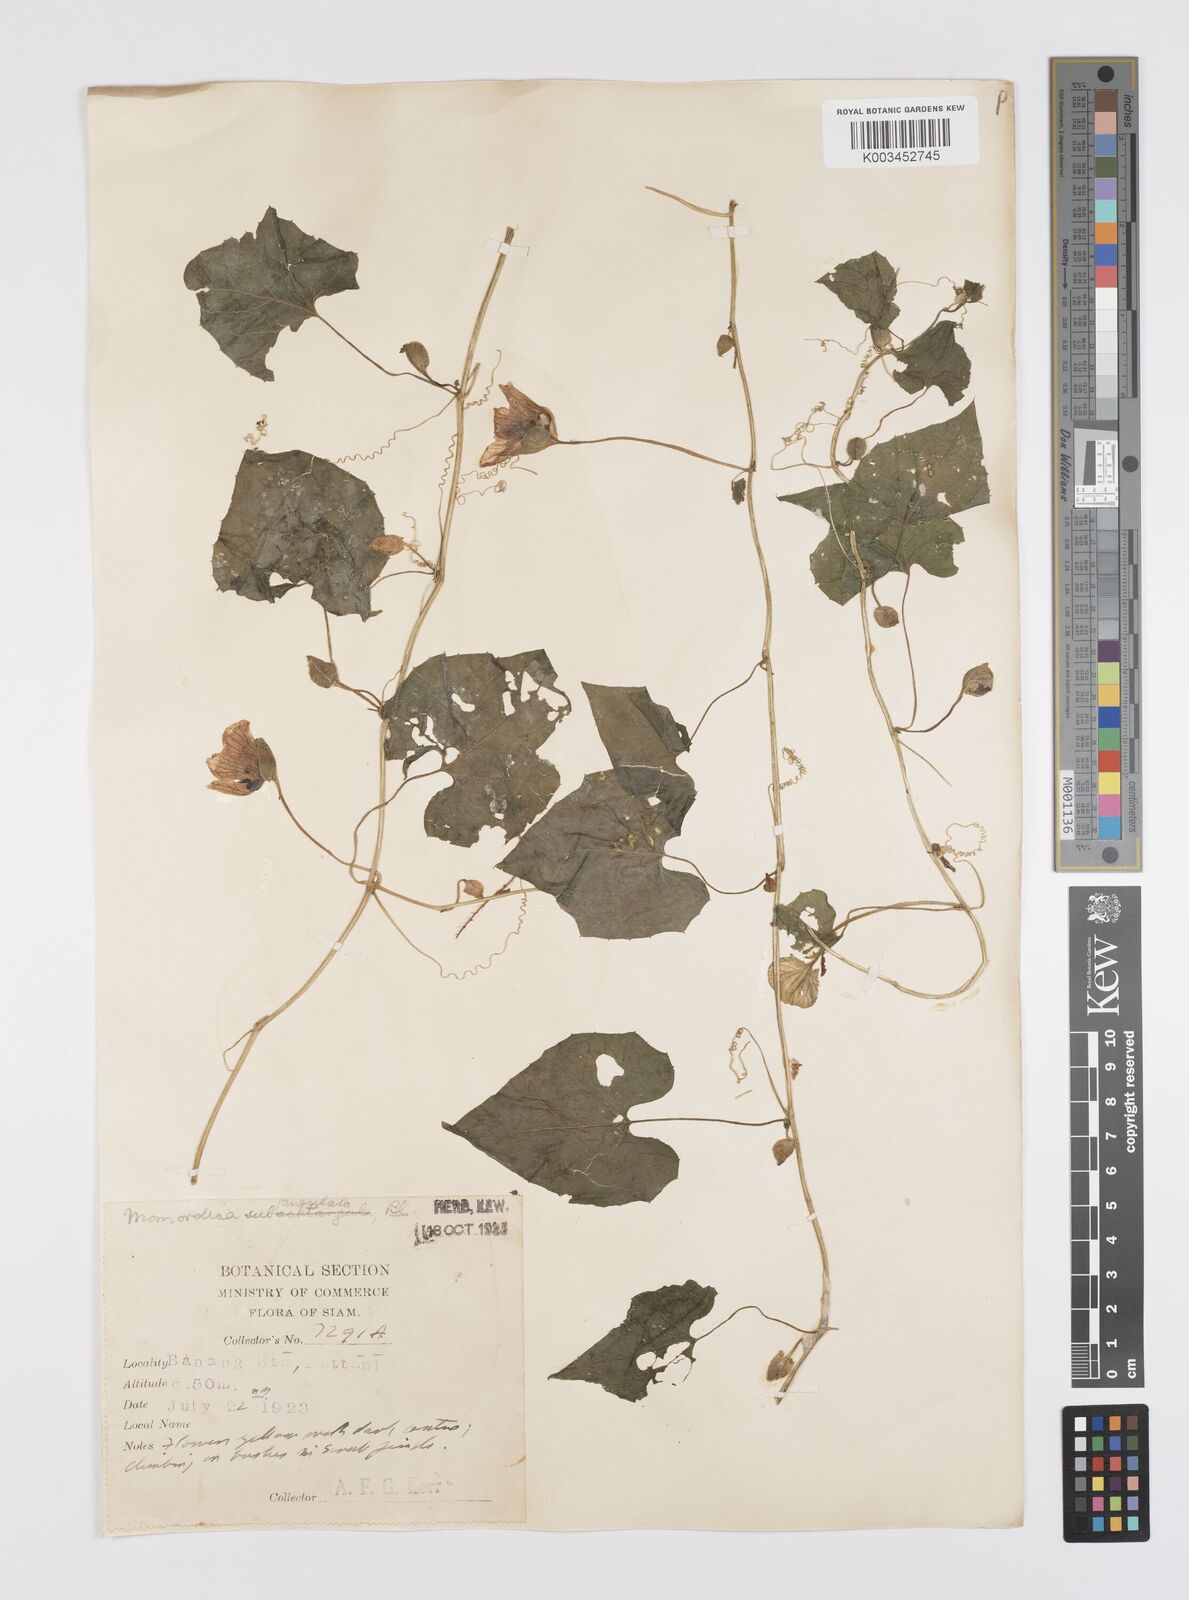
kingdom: Plantae
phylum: Tracheophyta
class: Magnoliopsida
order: Cucurbitales
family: Cucurbitaceae
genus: Momordica
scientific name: Momordica subangulata
